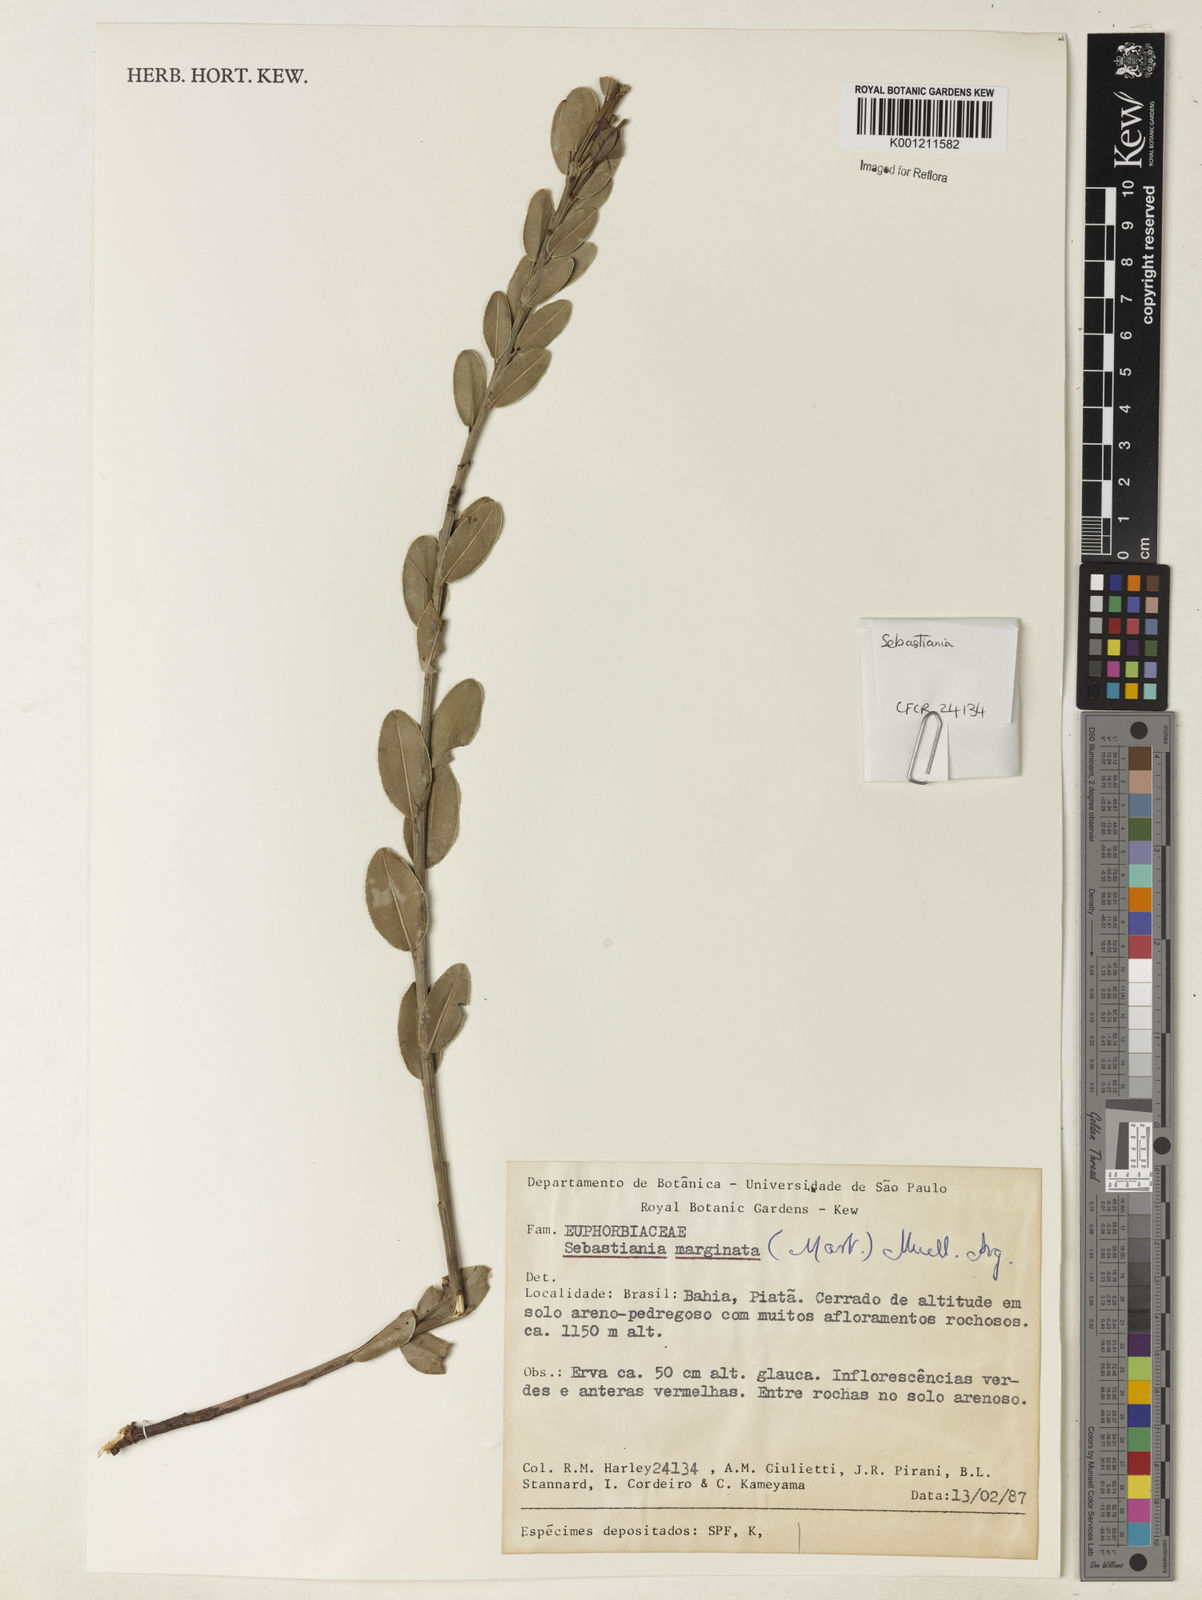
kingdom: Plantae
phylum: Tracheophyta
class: Magnoliopsida
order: Malpighiales
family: Euphorbiaceae
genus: Microstachys
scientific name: Microstachys
